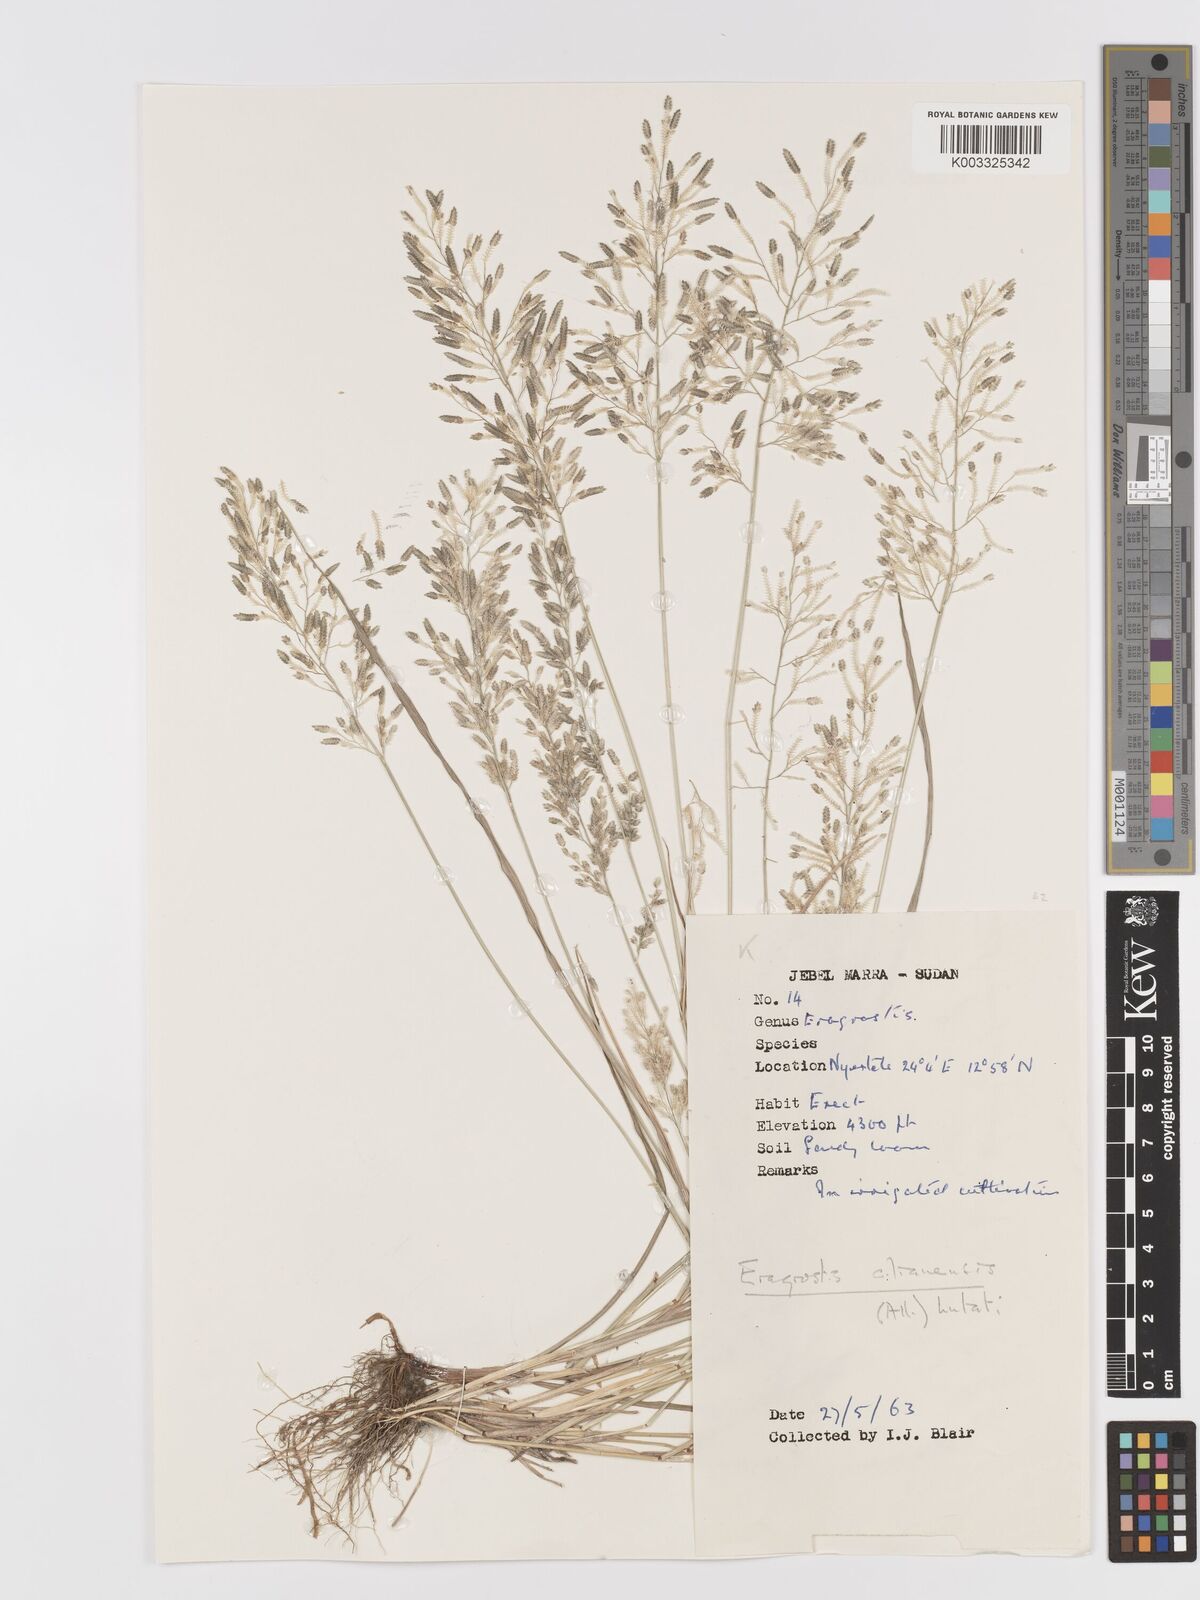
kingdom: Plantae
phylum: Tracheophyta
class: Liliopsida
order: Poales
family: Poaceae
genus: Eragrostis
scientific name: Eragrostis cilianensis
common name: Stinkgrass
